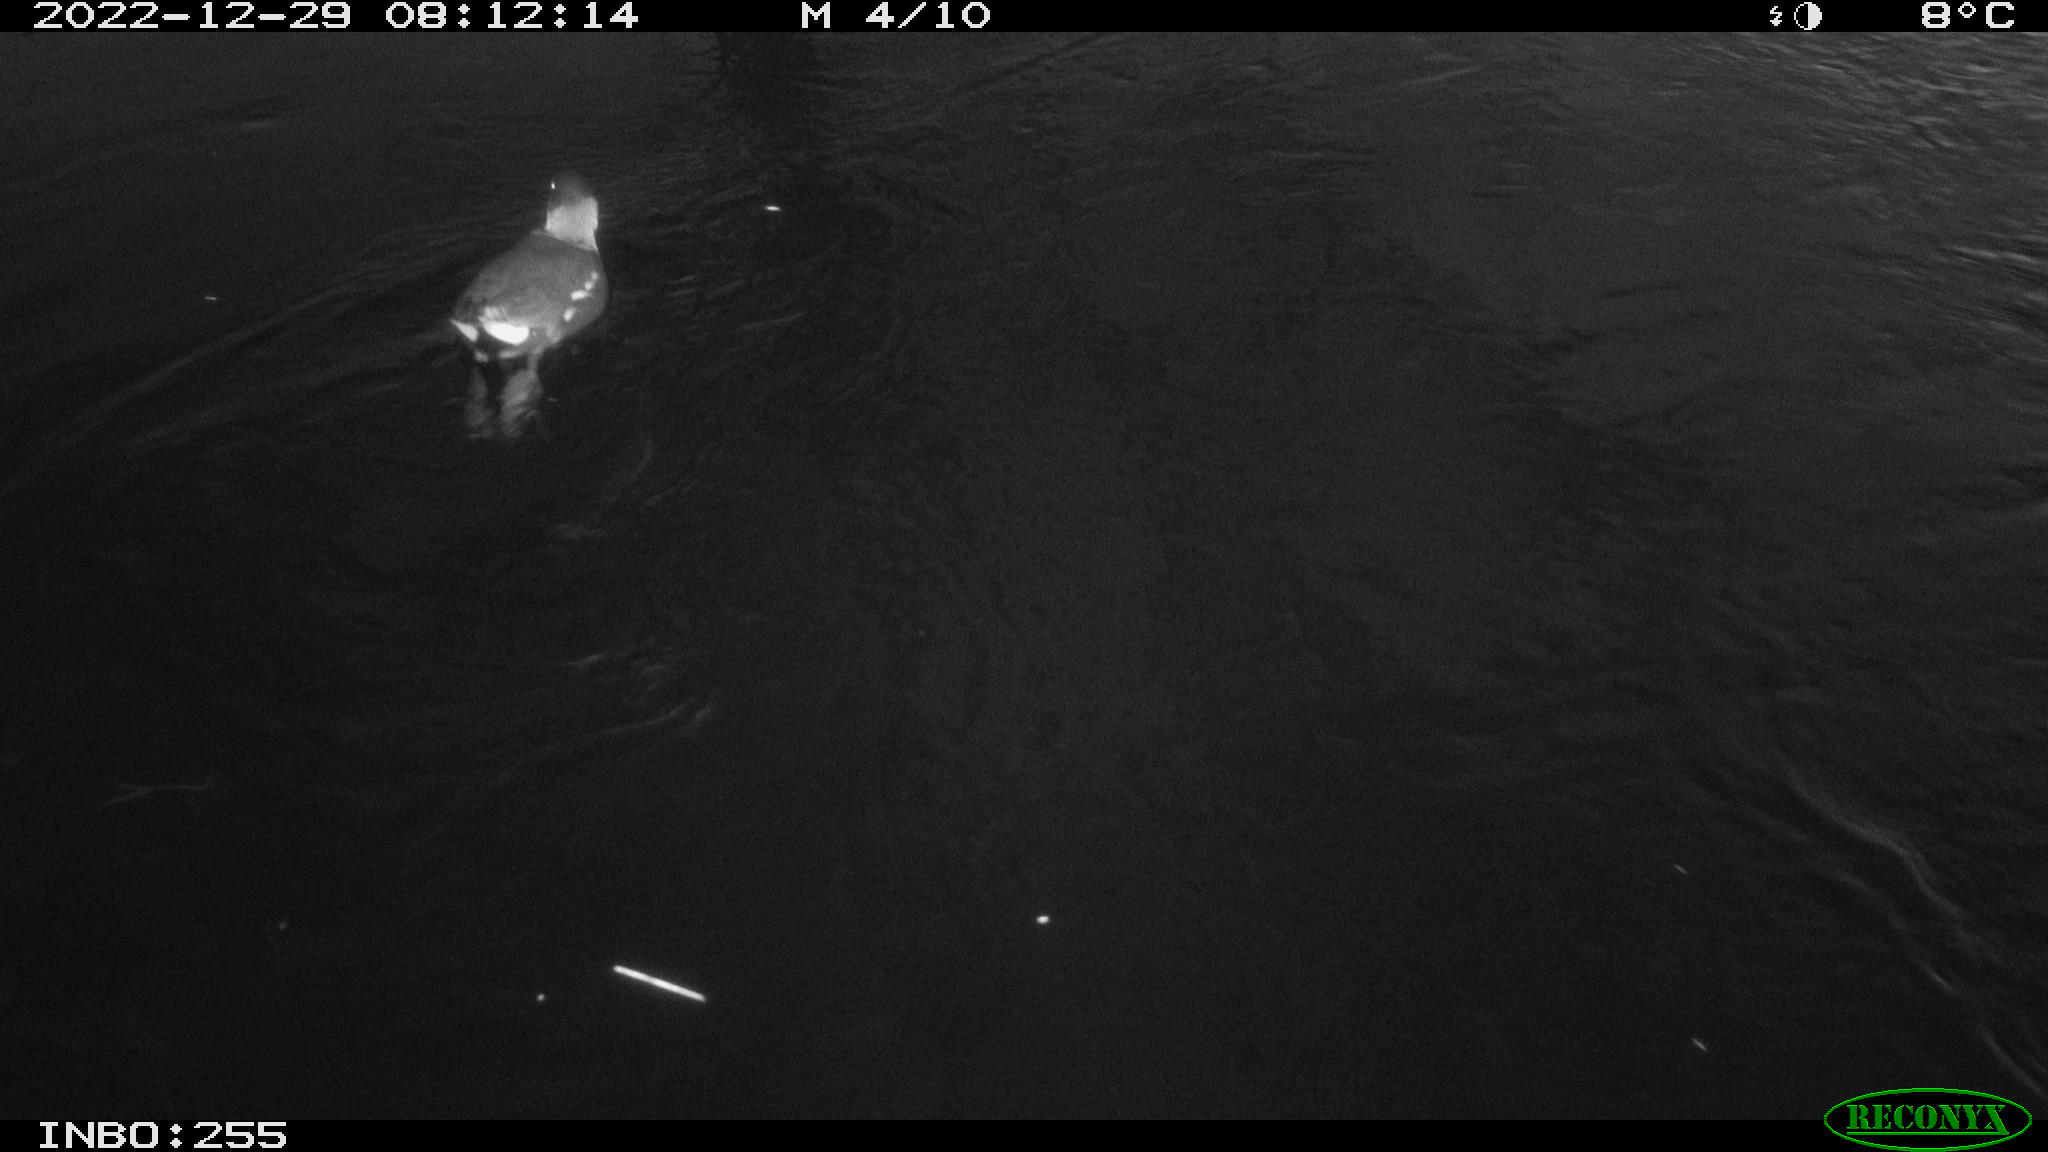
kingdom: Animalia
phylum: Chordata
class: Aves
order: Gruiformes
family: Rallidae
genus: Gallinula
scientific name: Gallinula chloropus
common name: Common moorhen
